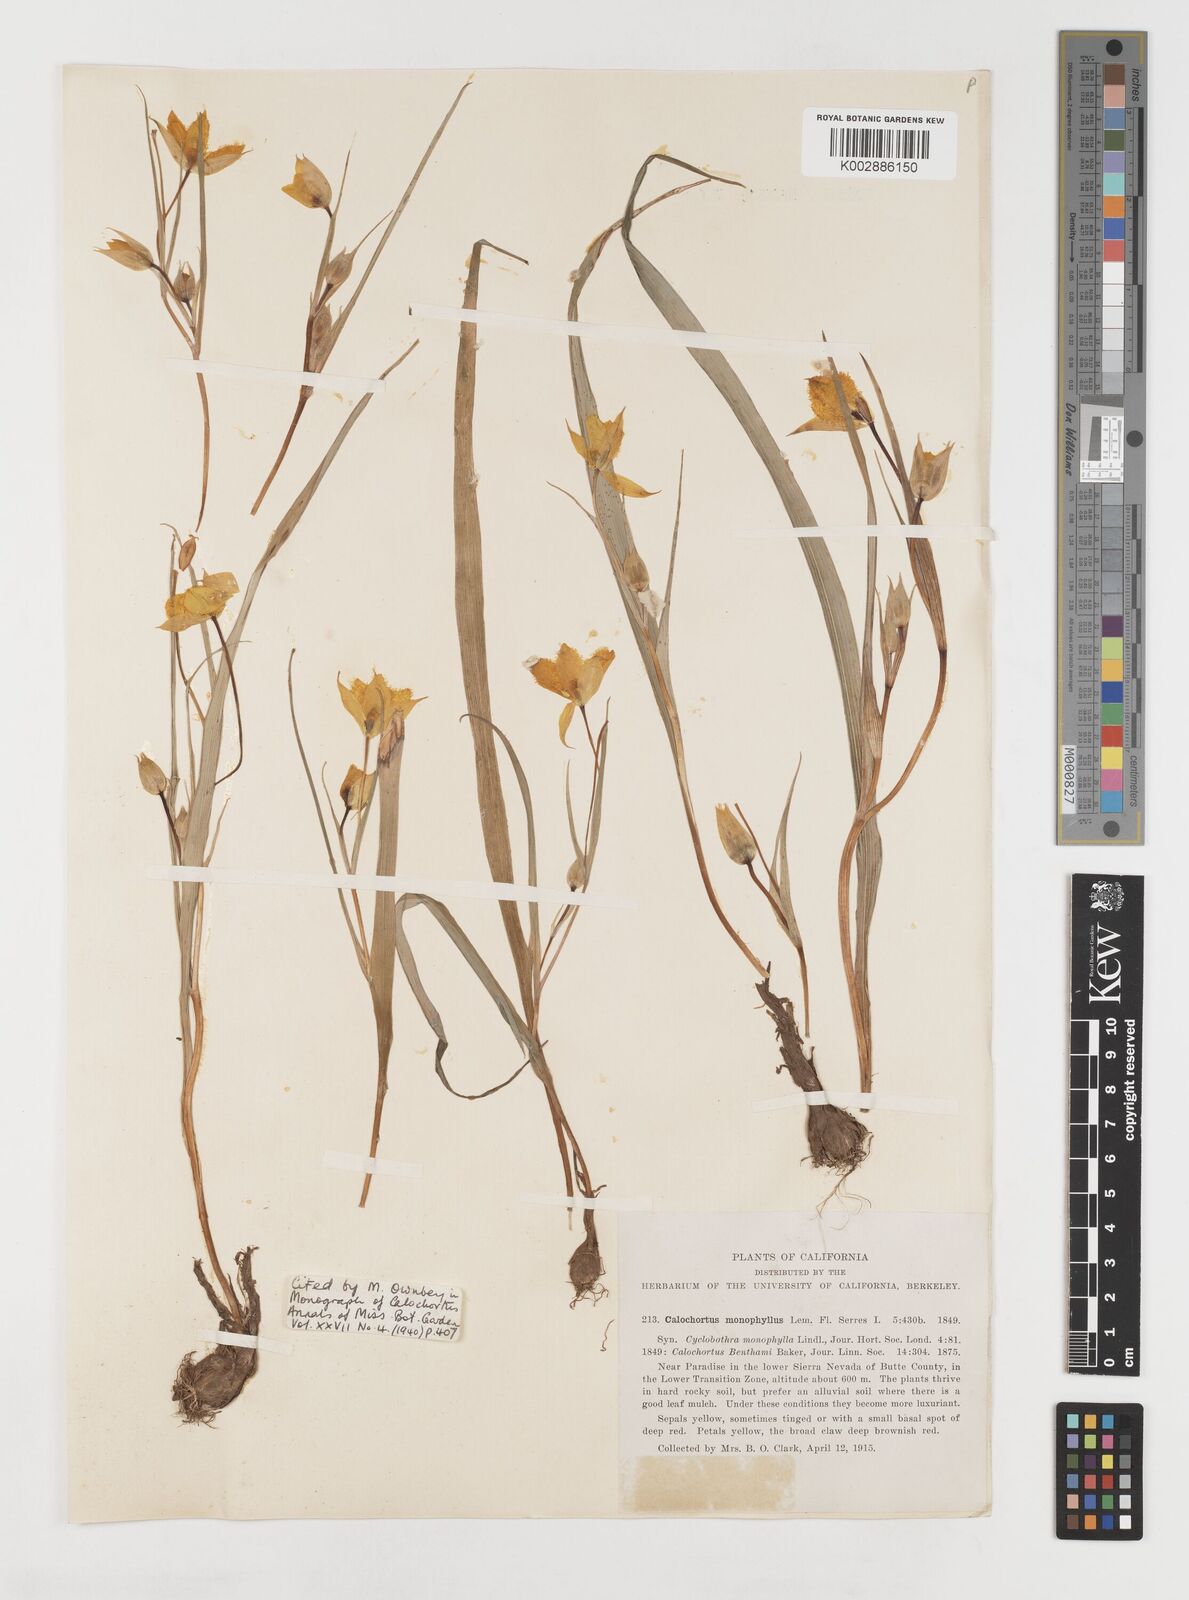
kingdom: Plantae
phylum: Tracheophyta
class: Liliopsida
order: Liliales
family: Liliaceae
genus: Calochortus
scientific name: Calochortus monophyllus
